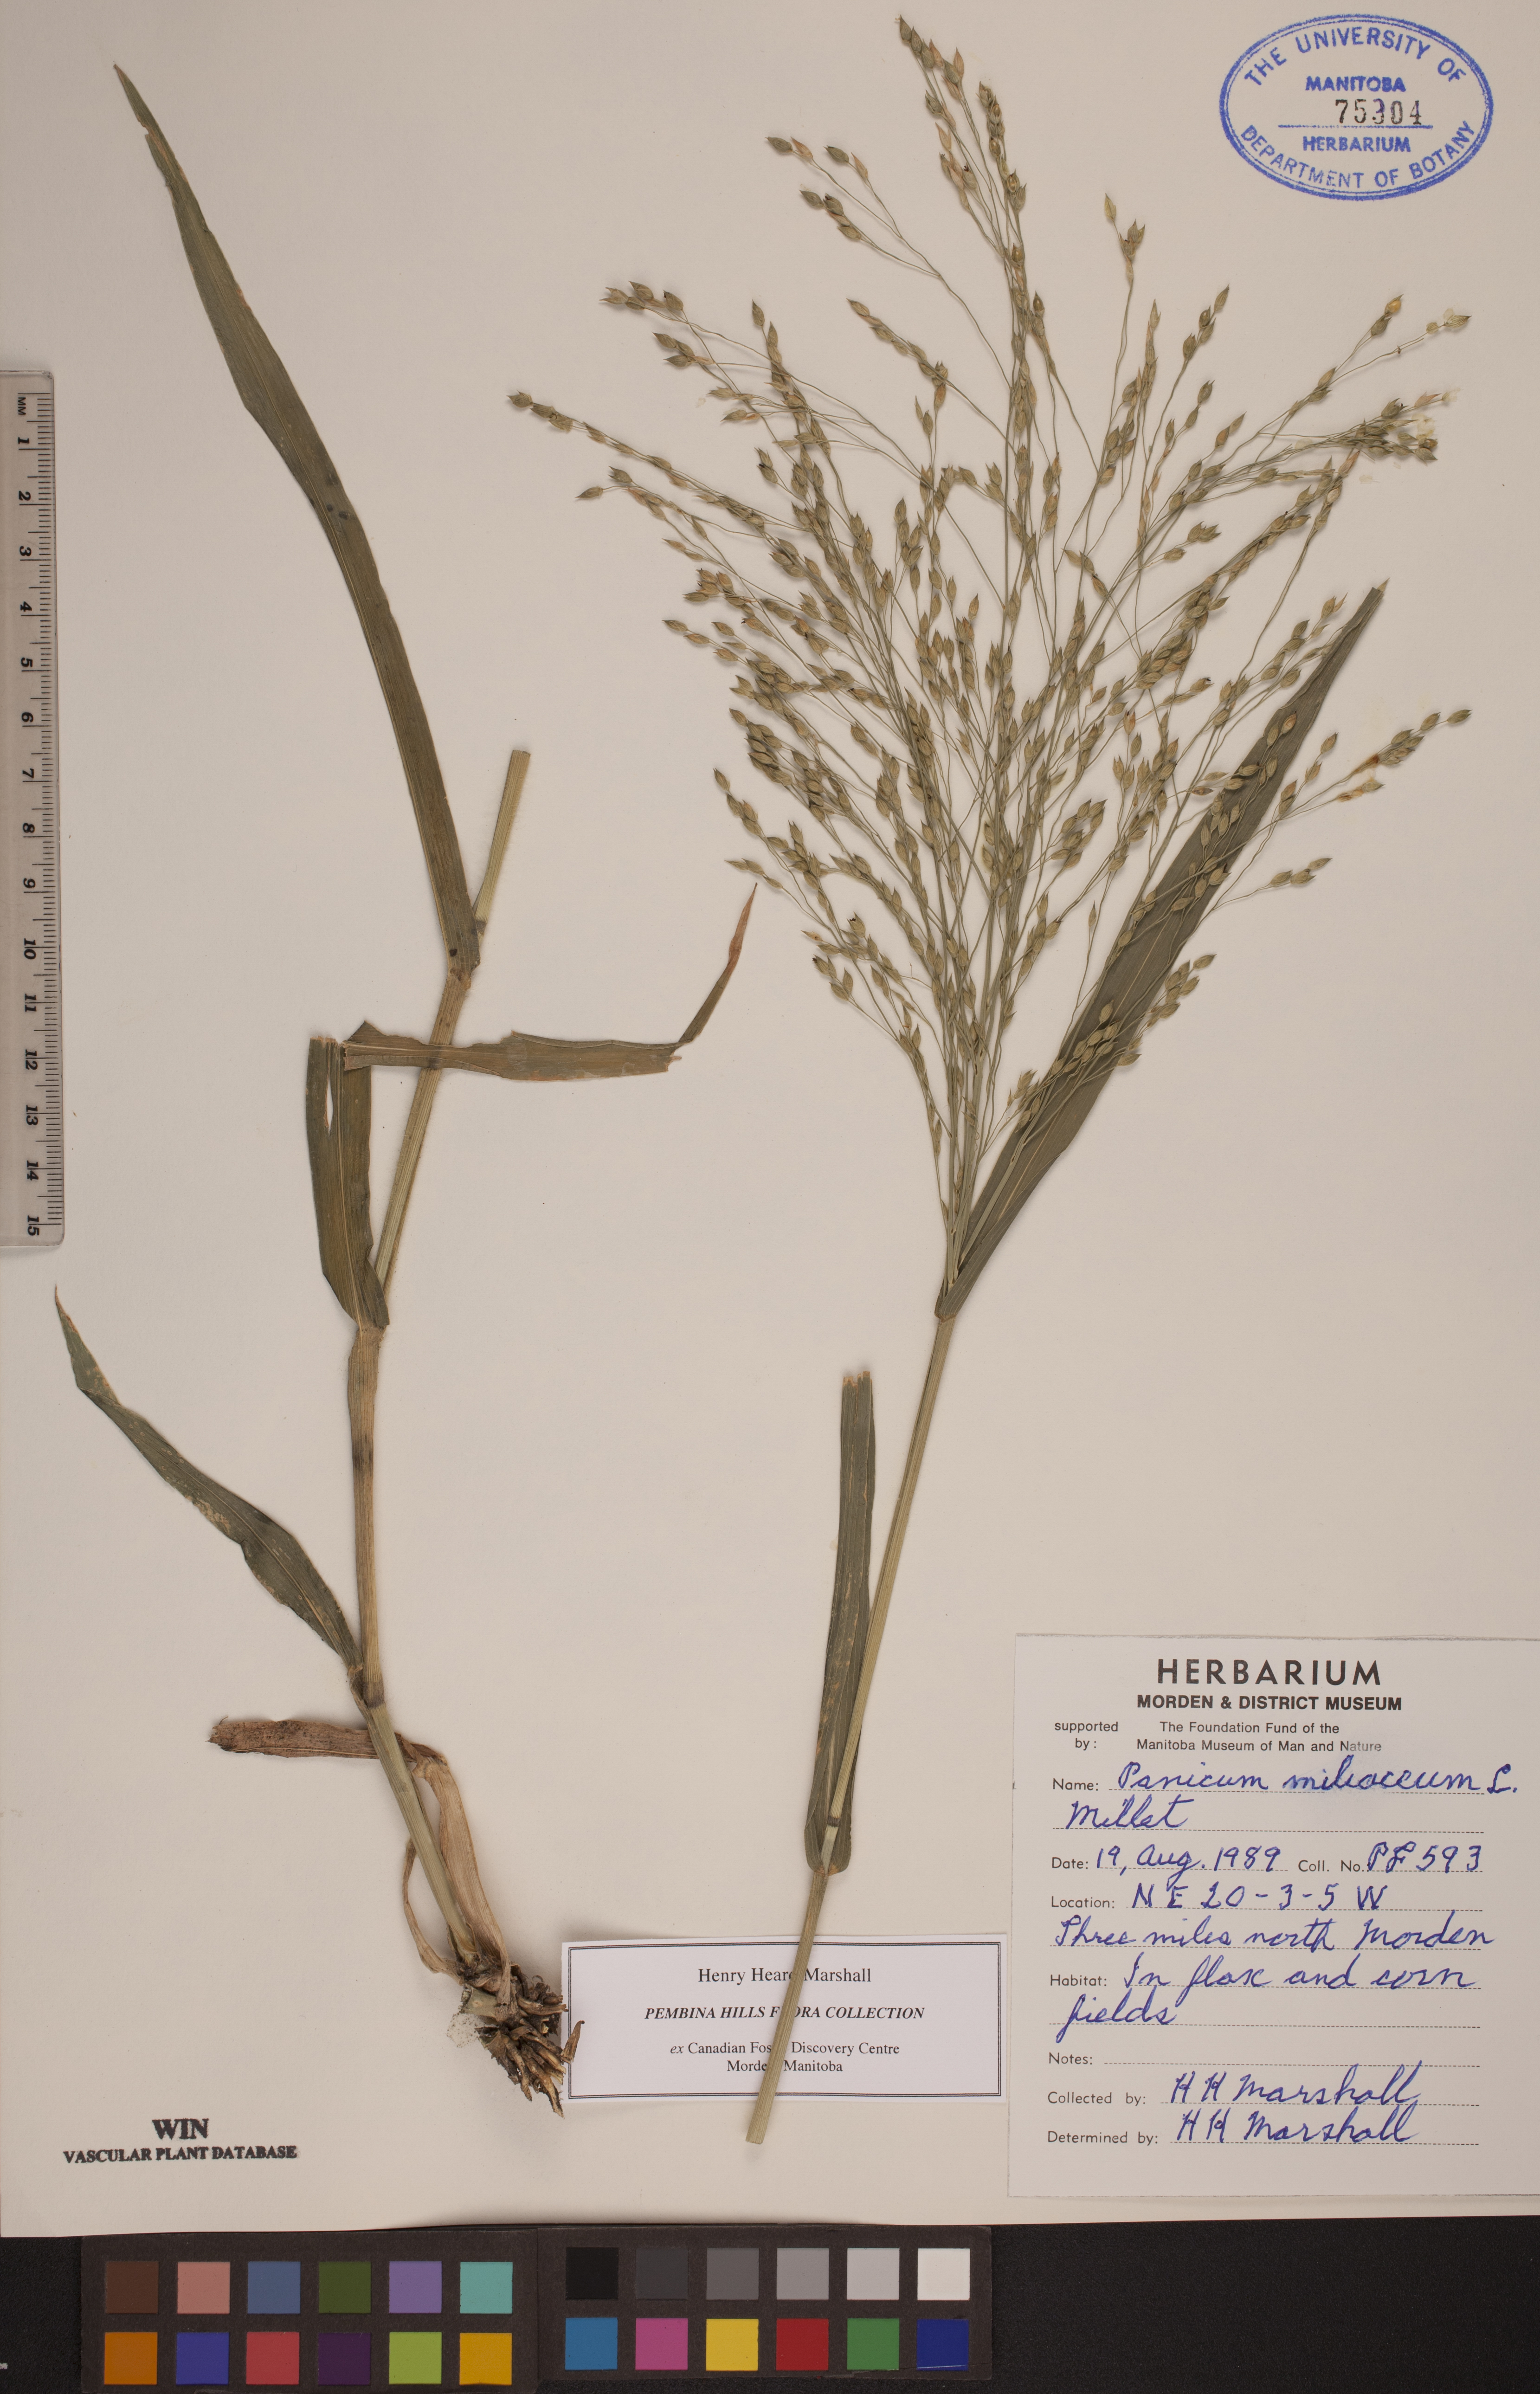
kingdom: Plantae
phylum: Tracheophyta
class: Liliopsida
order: Poales
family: Poaceae
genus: Panicum
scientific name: Panicum miliaceum
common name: Common millet
